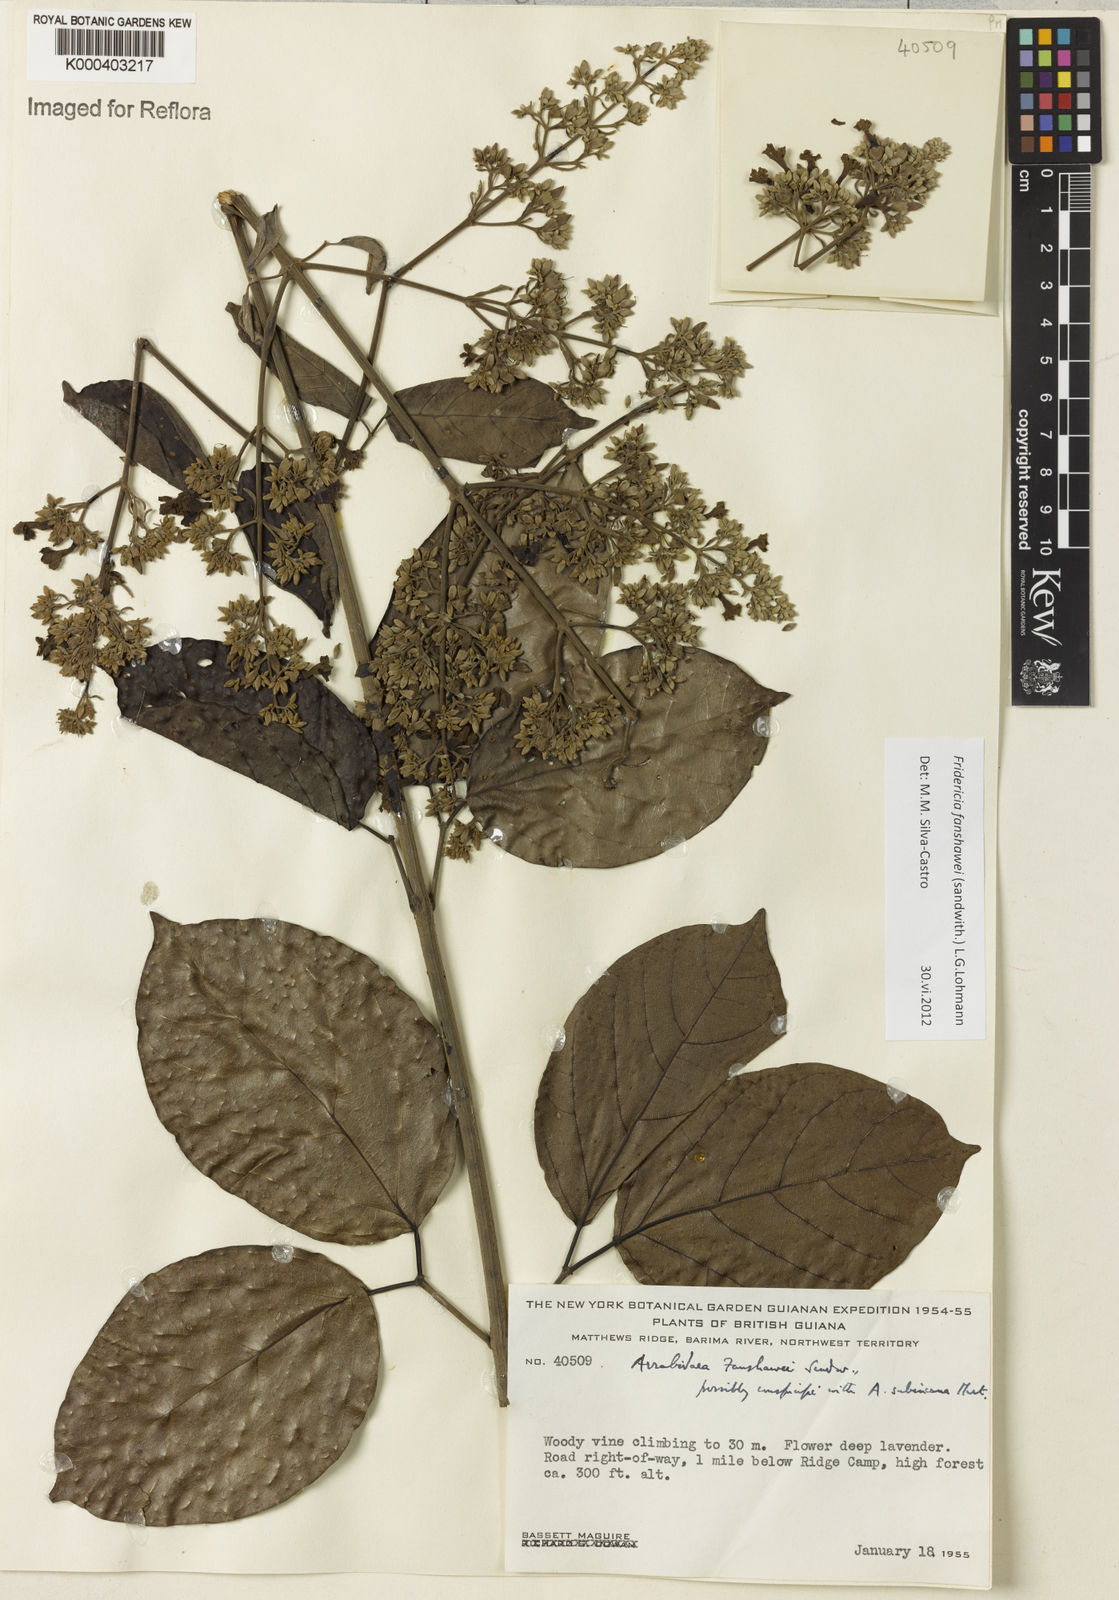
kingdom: Plantae
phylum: Tracheophyta
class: Magnoliopsida
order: Lamiales
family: Bignoniaceae
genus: Fridericia
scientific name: Fridericia fanshawei
